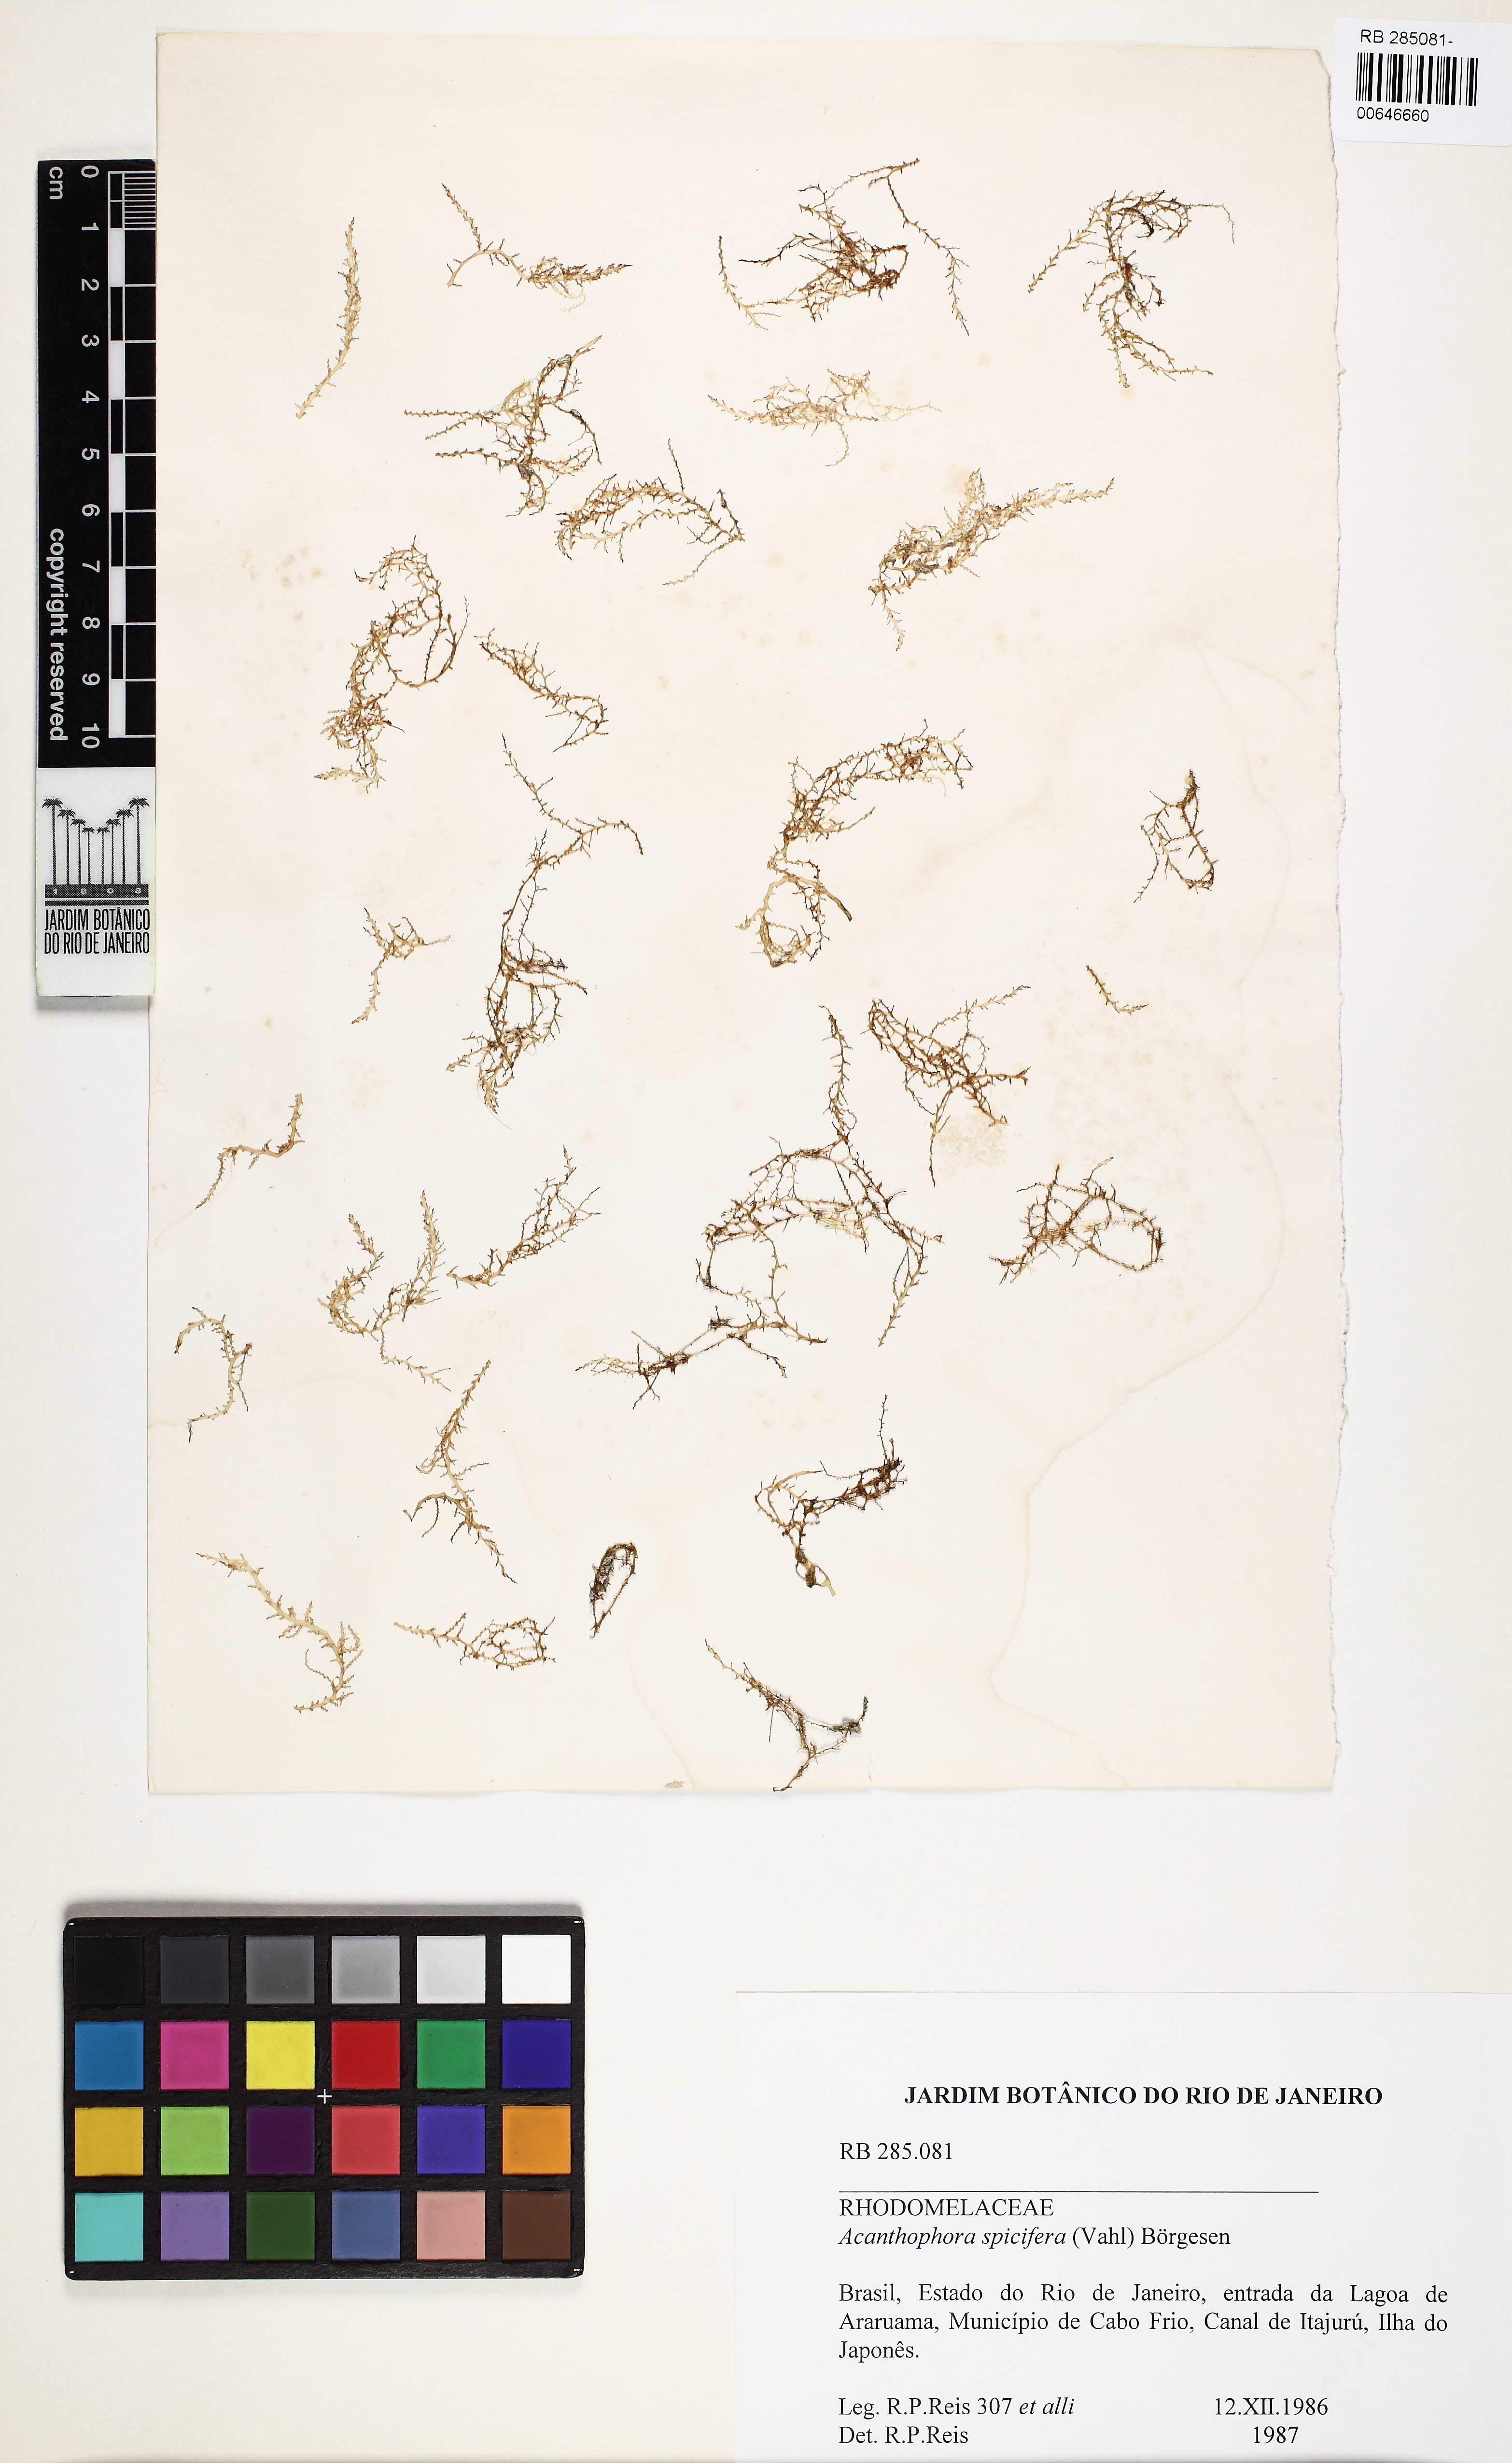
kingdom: Plantae
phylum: Rhodophyta
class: Florideophyceae
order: Ceramiales
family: Rhodomelaceae
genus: Acanthophora
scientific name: Acanthophora spicifera
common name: Red algae
